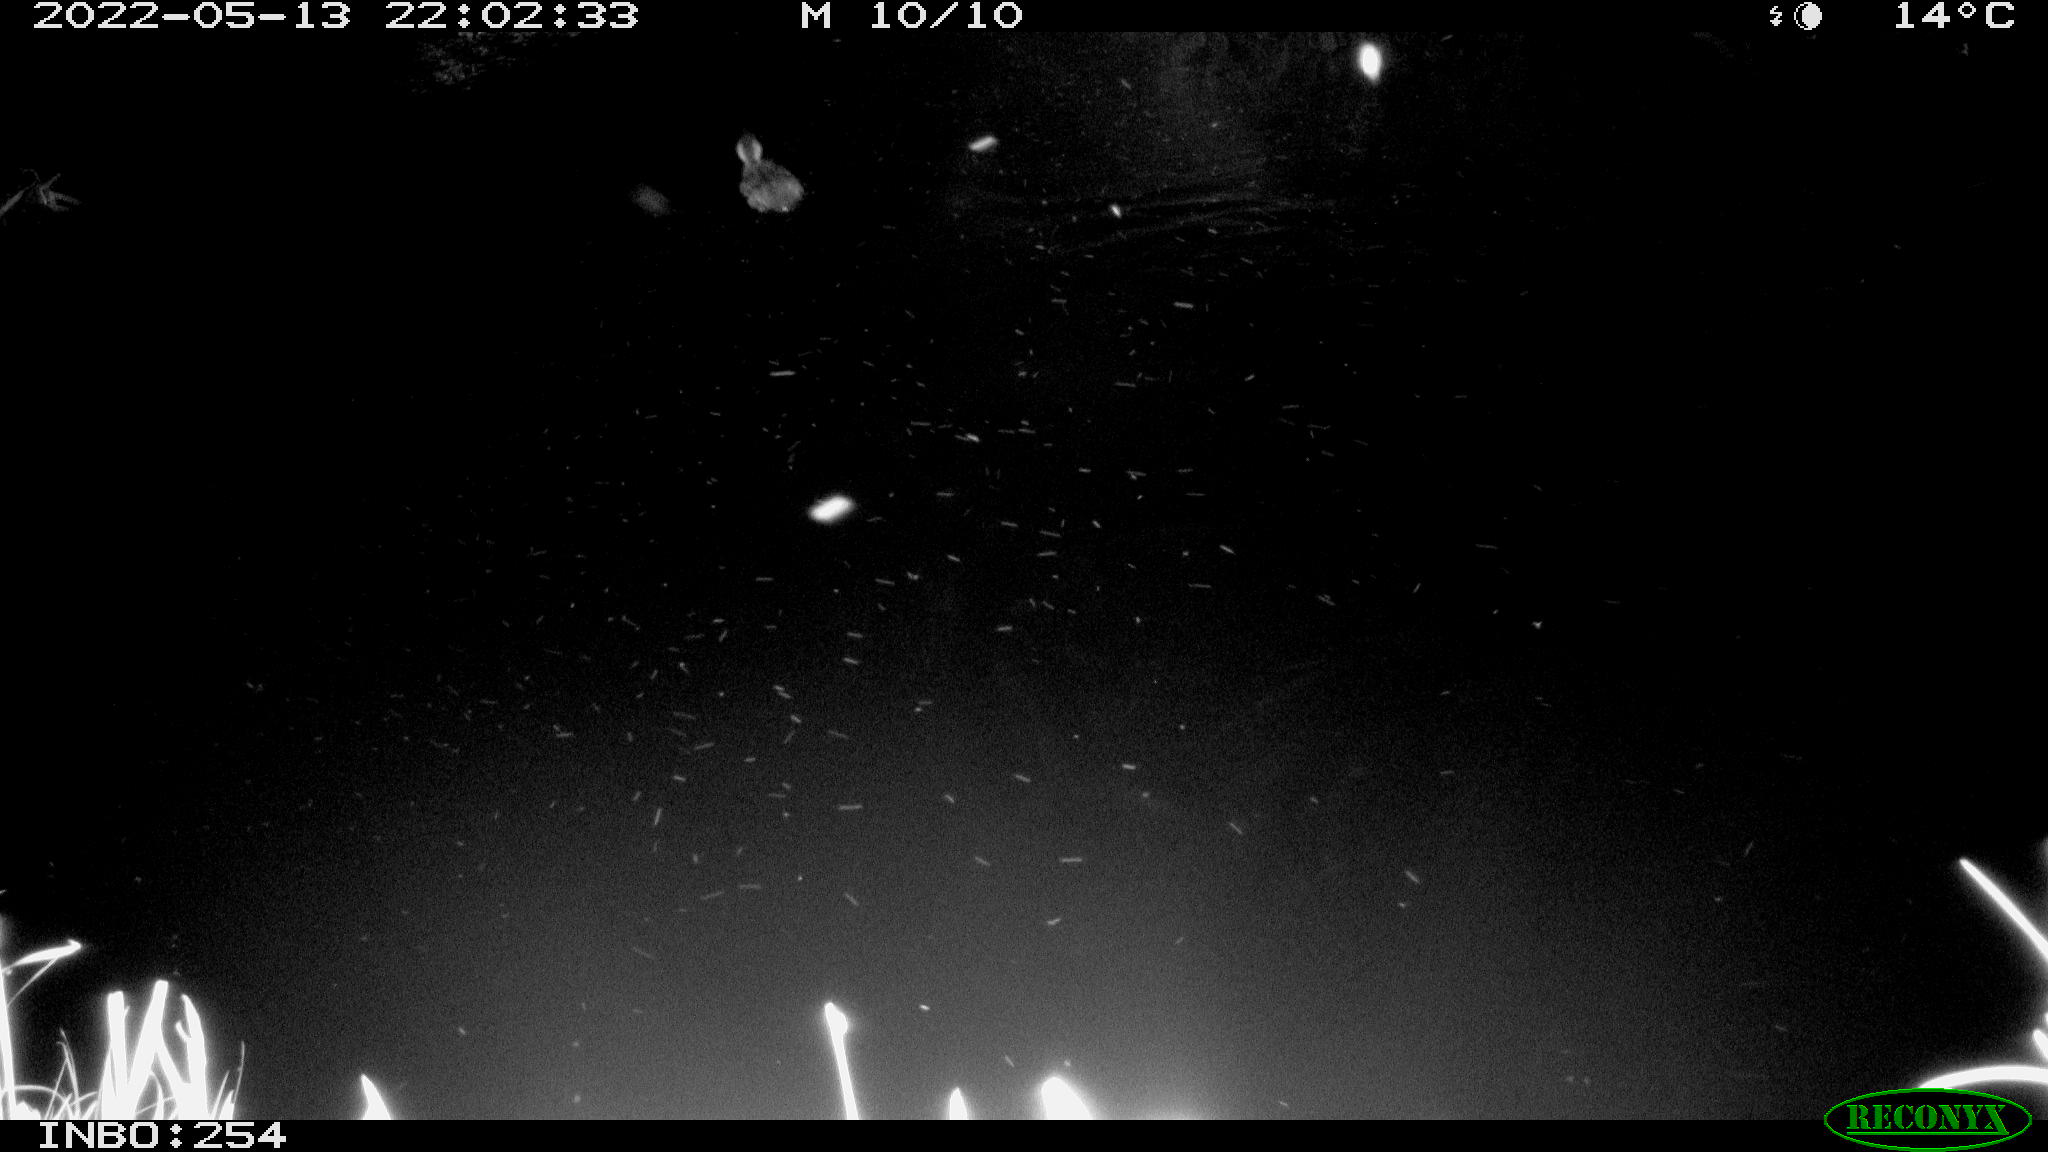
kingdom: Animalia
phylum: Chordata
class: Aves
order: Anseriformes
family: Anatidae
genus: Anas
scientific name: Anas platyrhynchos
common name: Mallard
